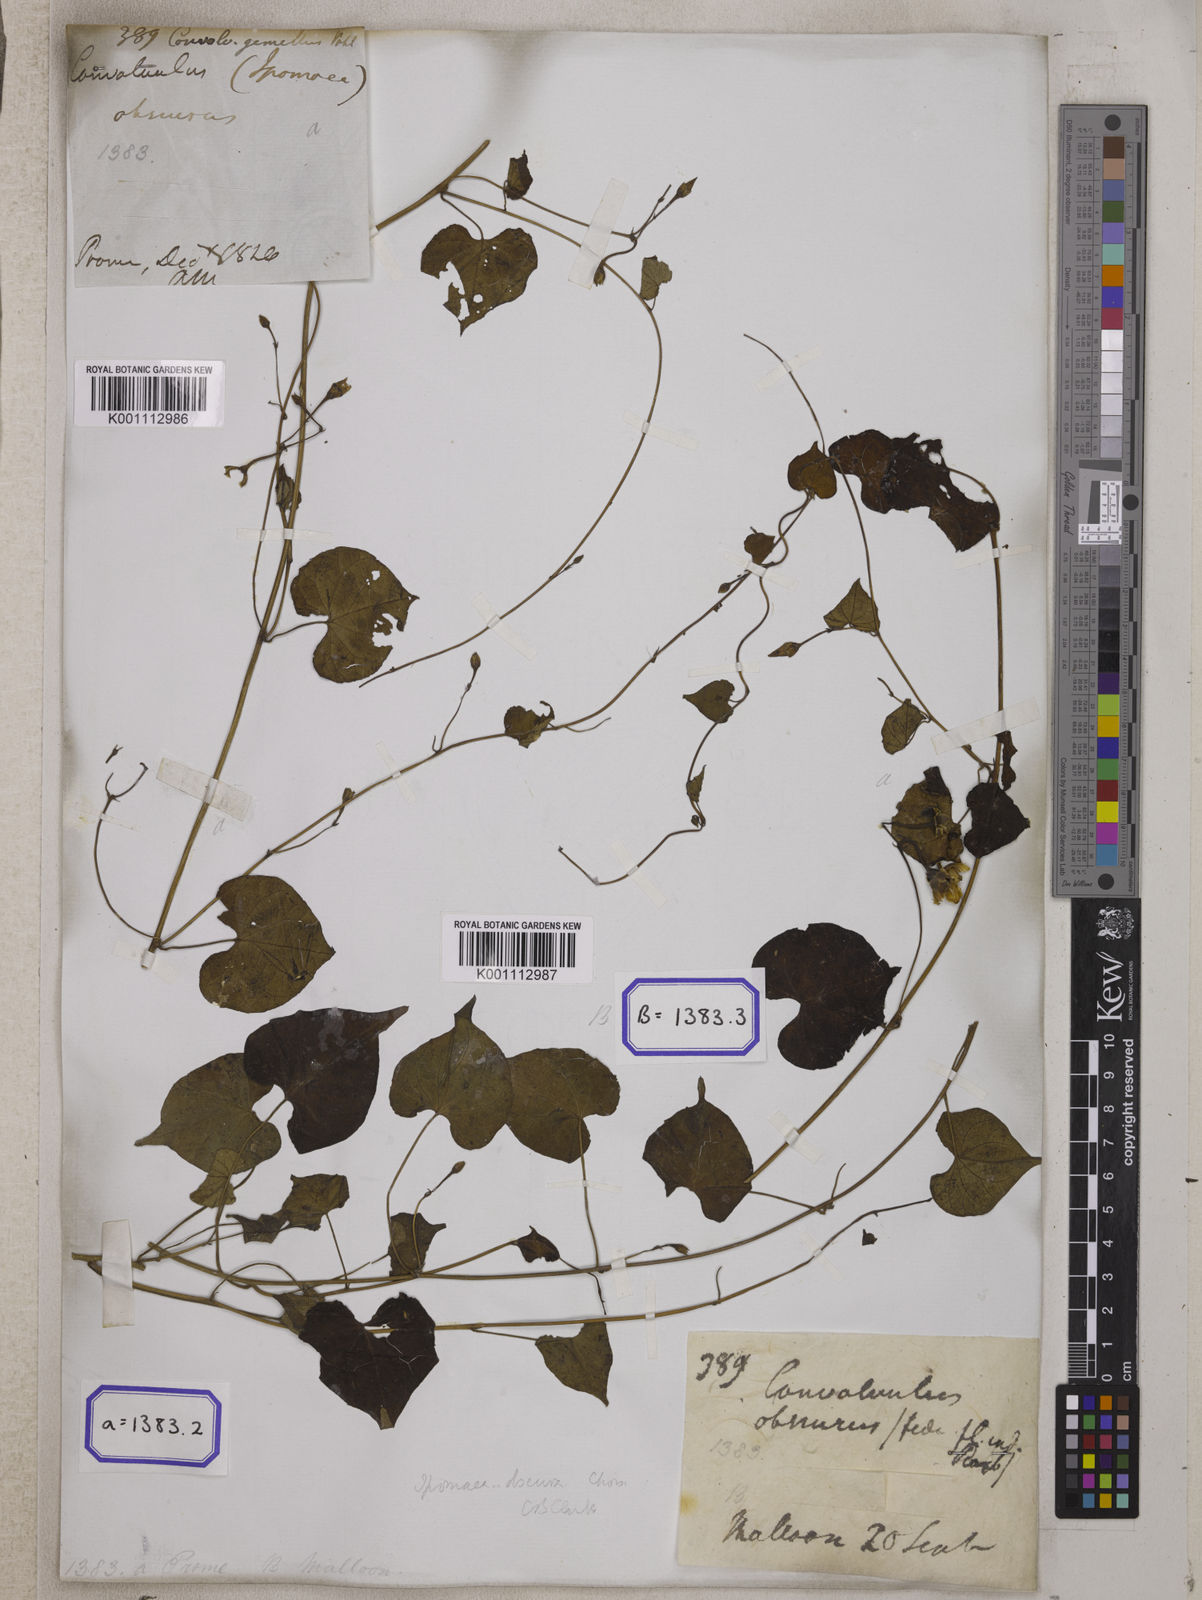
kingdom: Plantae
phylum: Tracheophyta
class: Magnoliopsida
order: Solanales
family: Convolvulaceae
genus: Convolvulus
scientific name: Convolvulus
